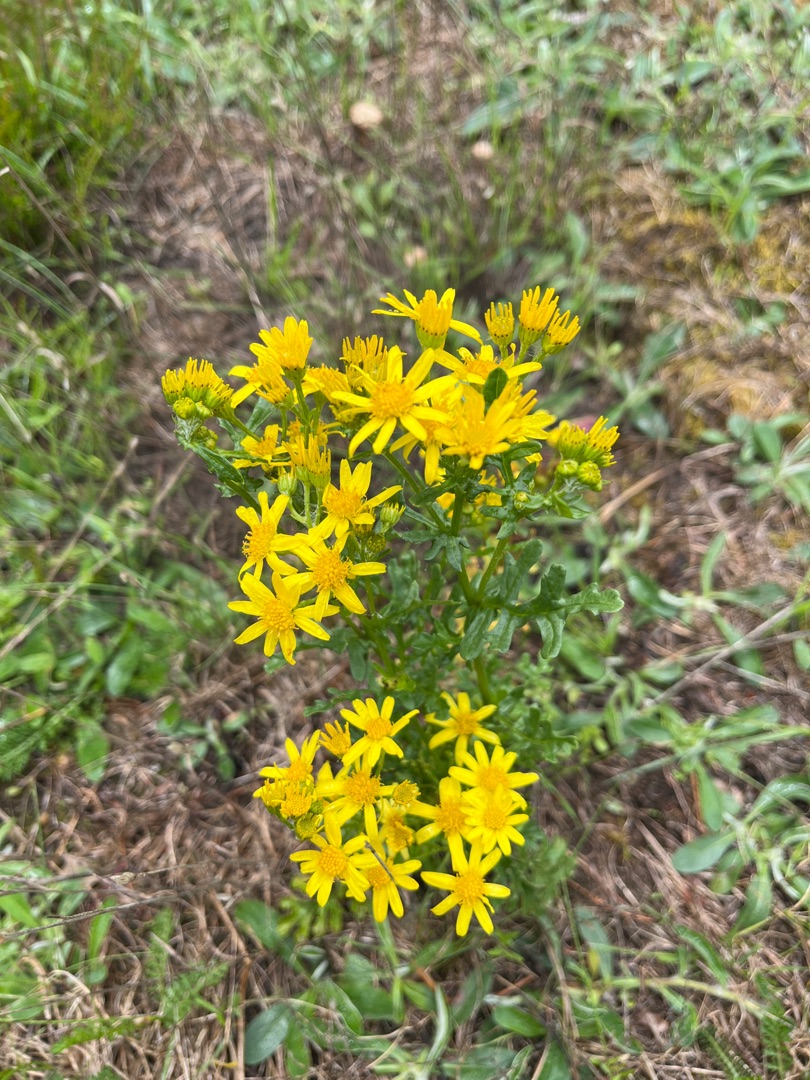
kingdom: Plantae
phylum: Tracheophyta
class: Magnoliopsida
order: Asterales
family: Asteraceae
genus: Jacobaea
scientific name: Jacobaea vulgaris
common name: Eng-brandbæger
